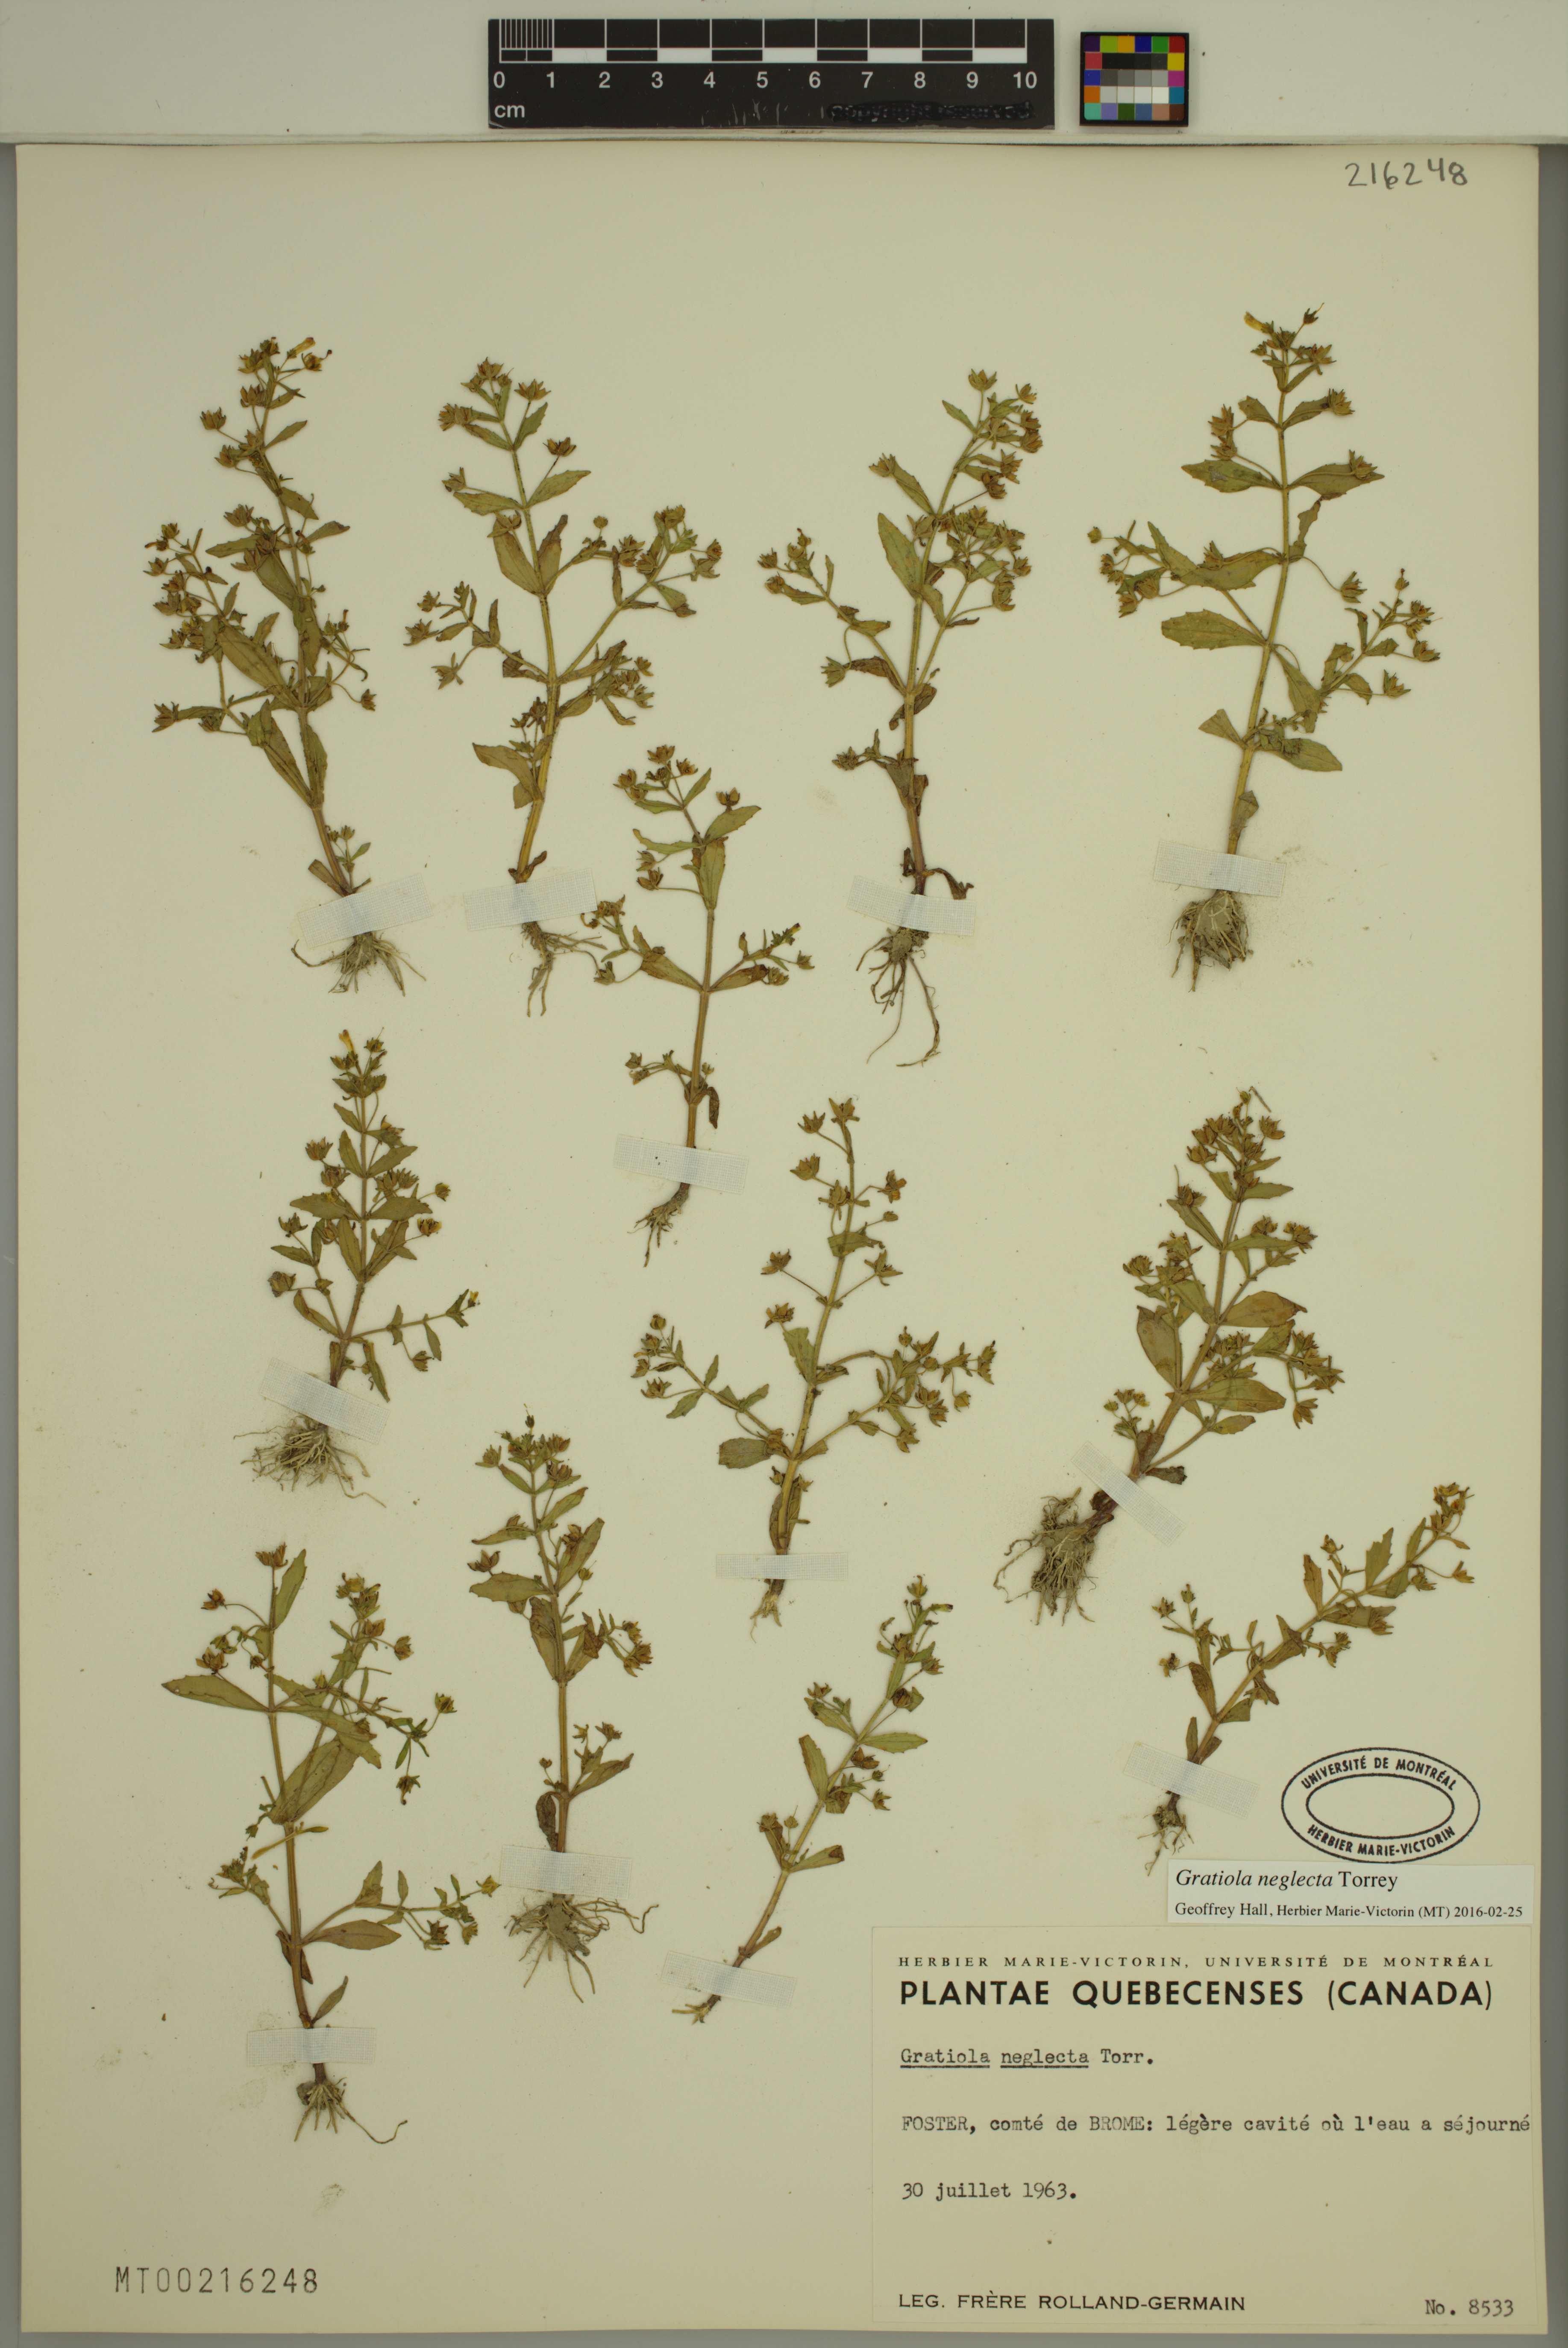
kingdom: Plantae
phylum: Tracheophyta
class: Magnoliopsida
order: Lamiales
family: Plantaginaceae
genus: Gratiola
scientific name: Gratiola neglecta
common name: American hedge-hyssop
